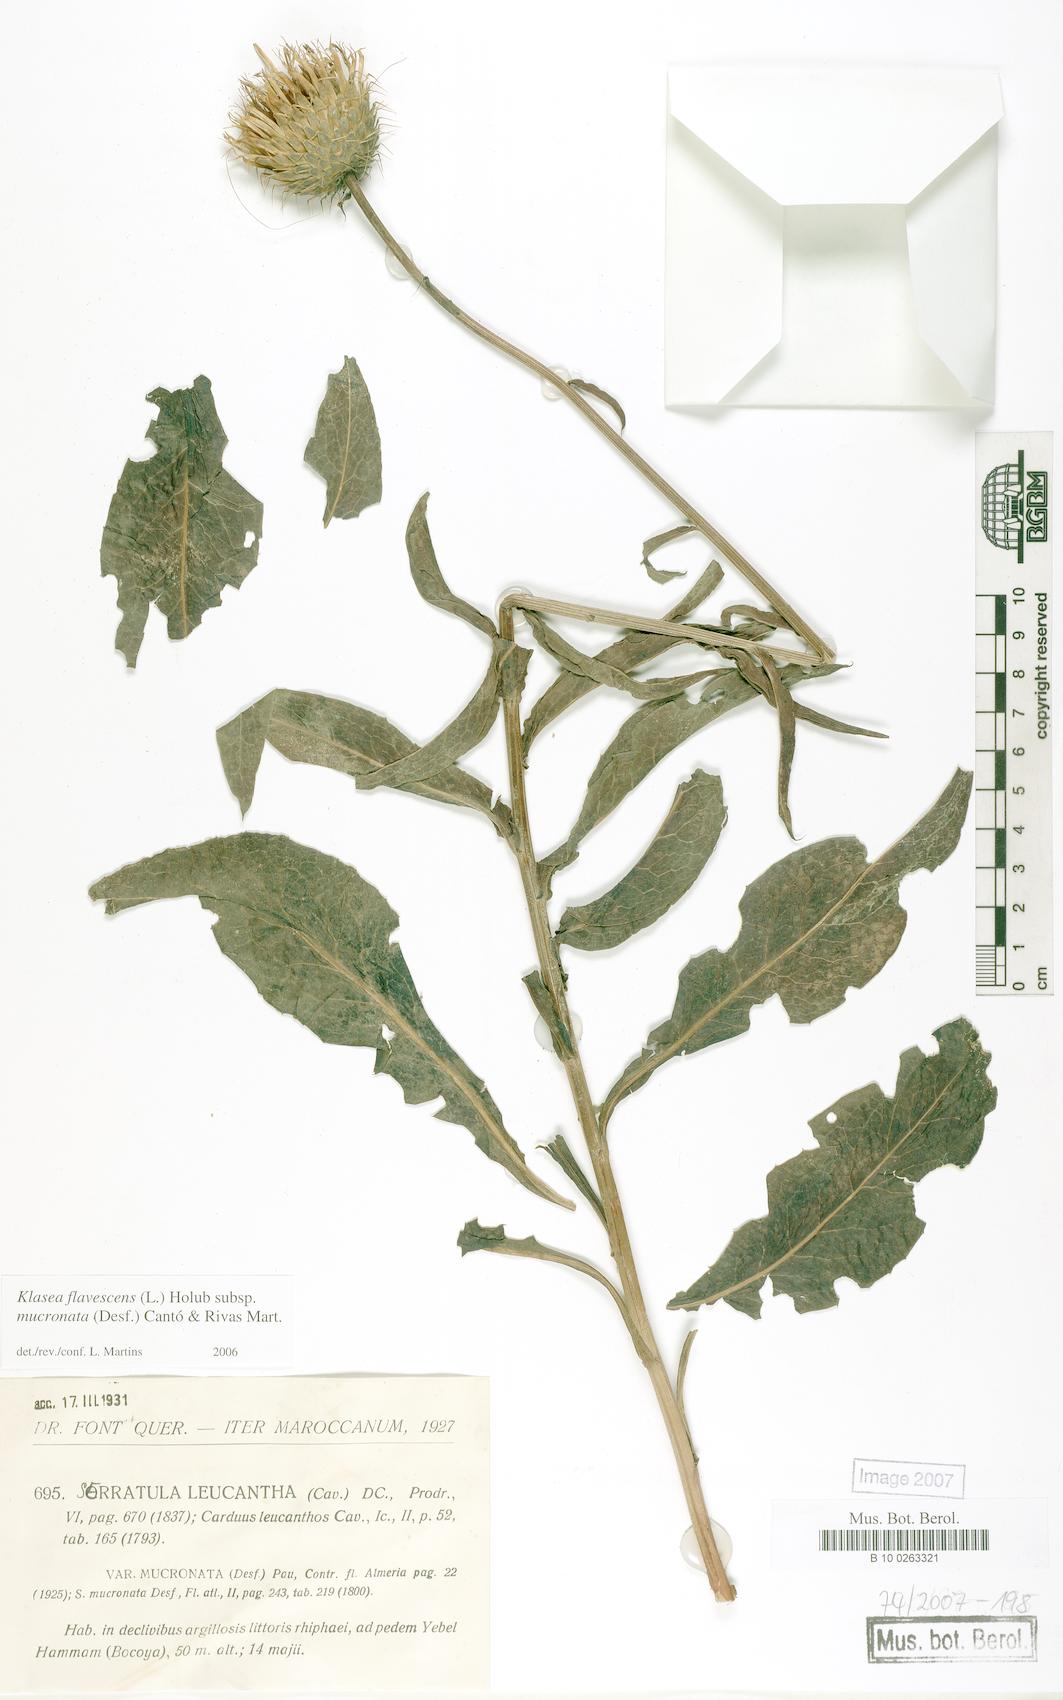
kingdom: Plantae
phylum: Tracheophyta
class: Magnoliopsida
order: Asterales
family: Asteraceae
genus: Klasea
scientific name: Klasea flavescens
